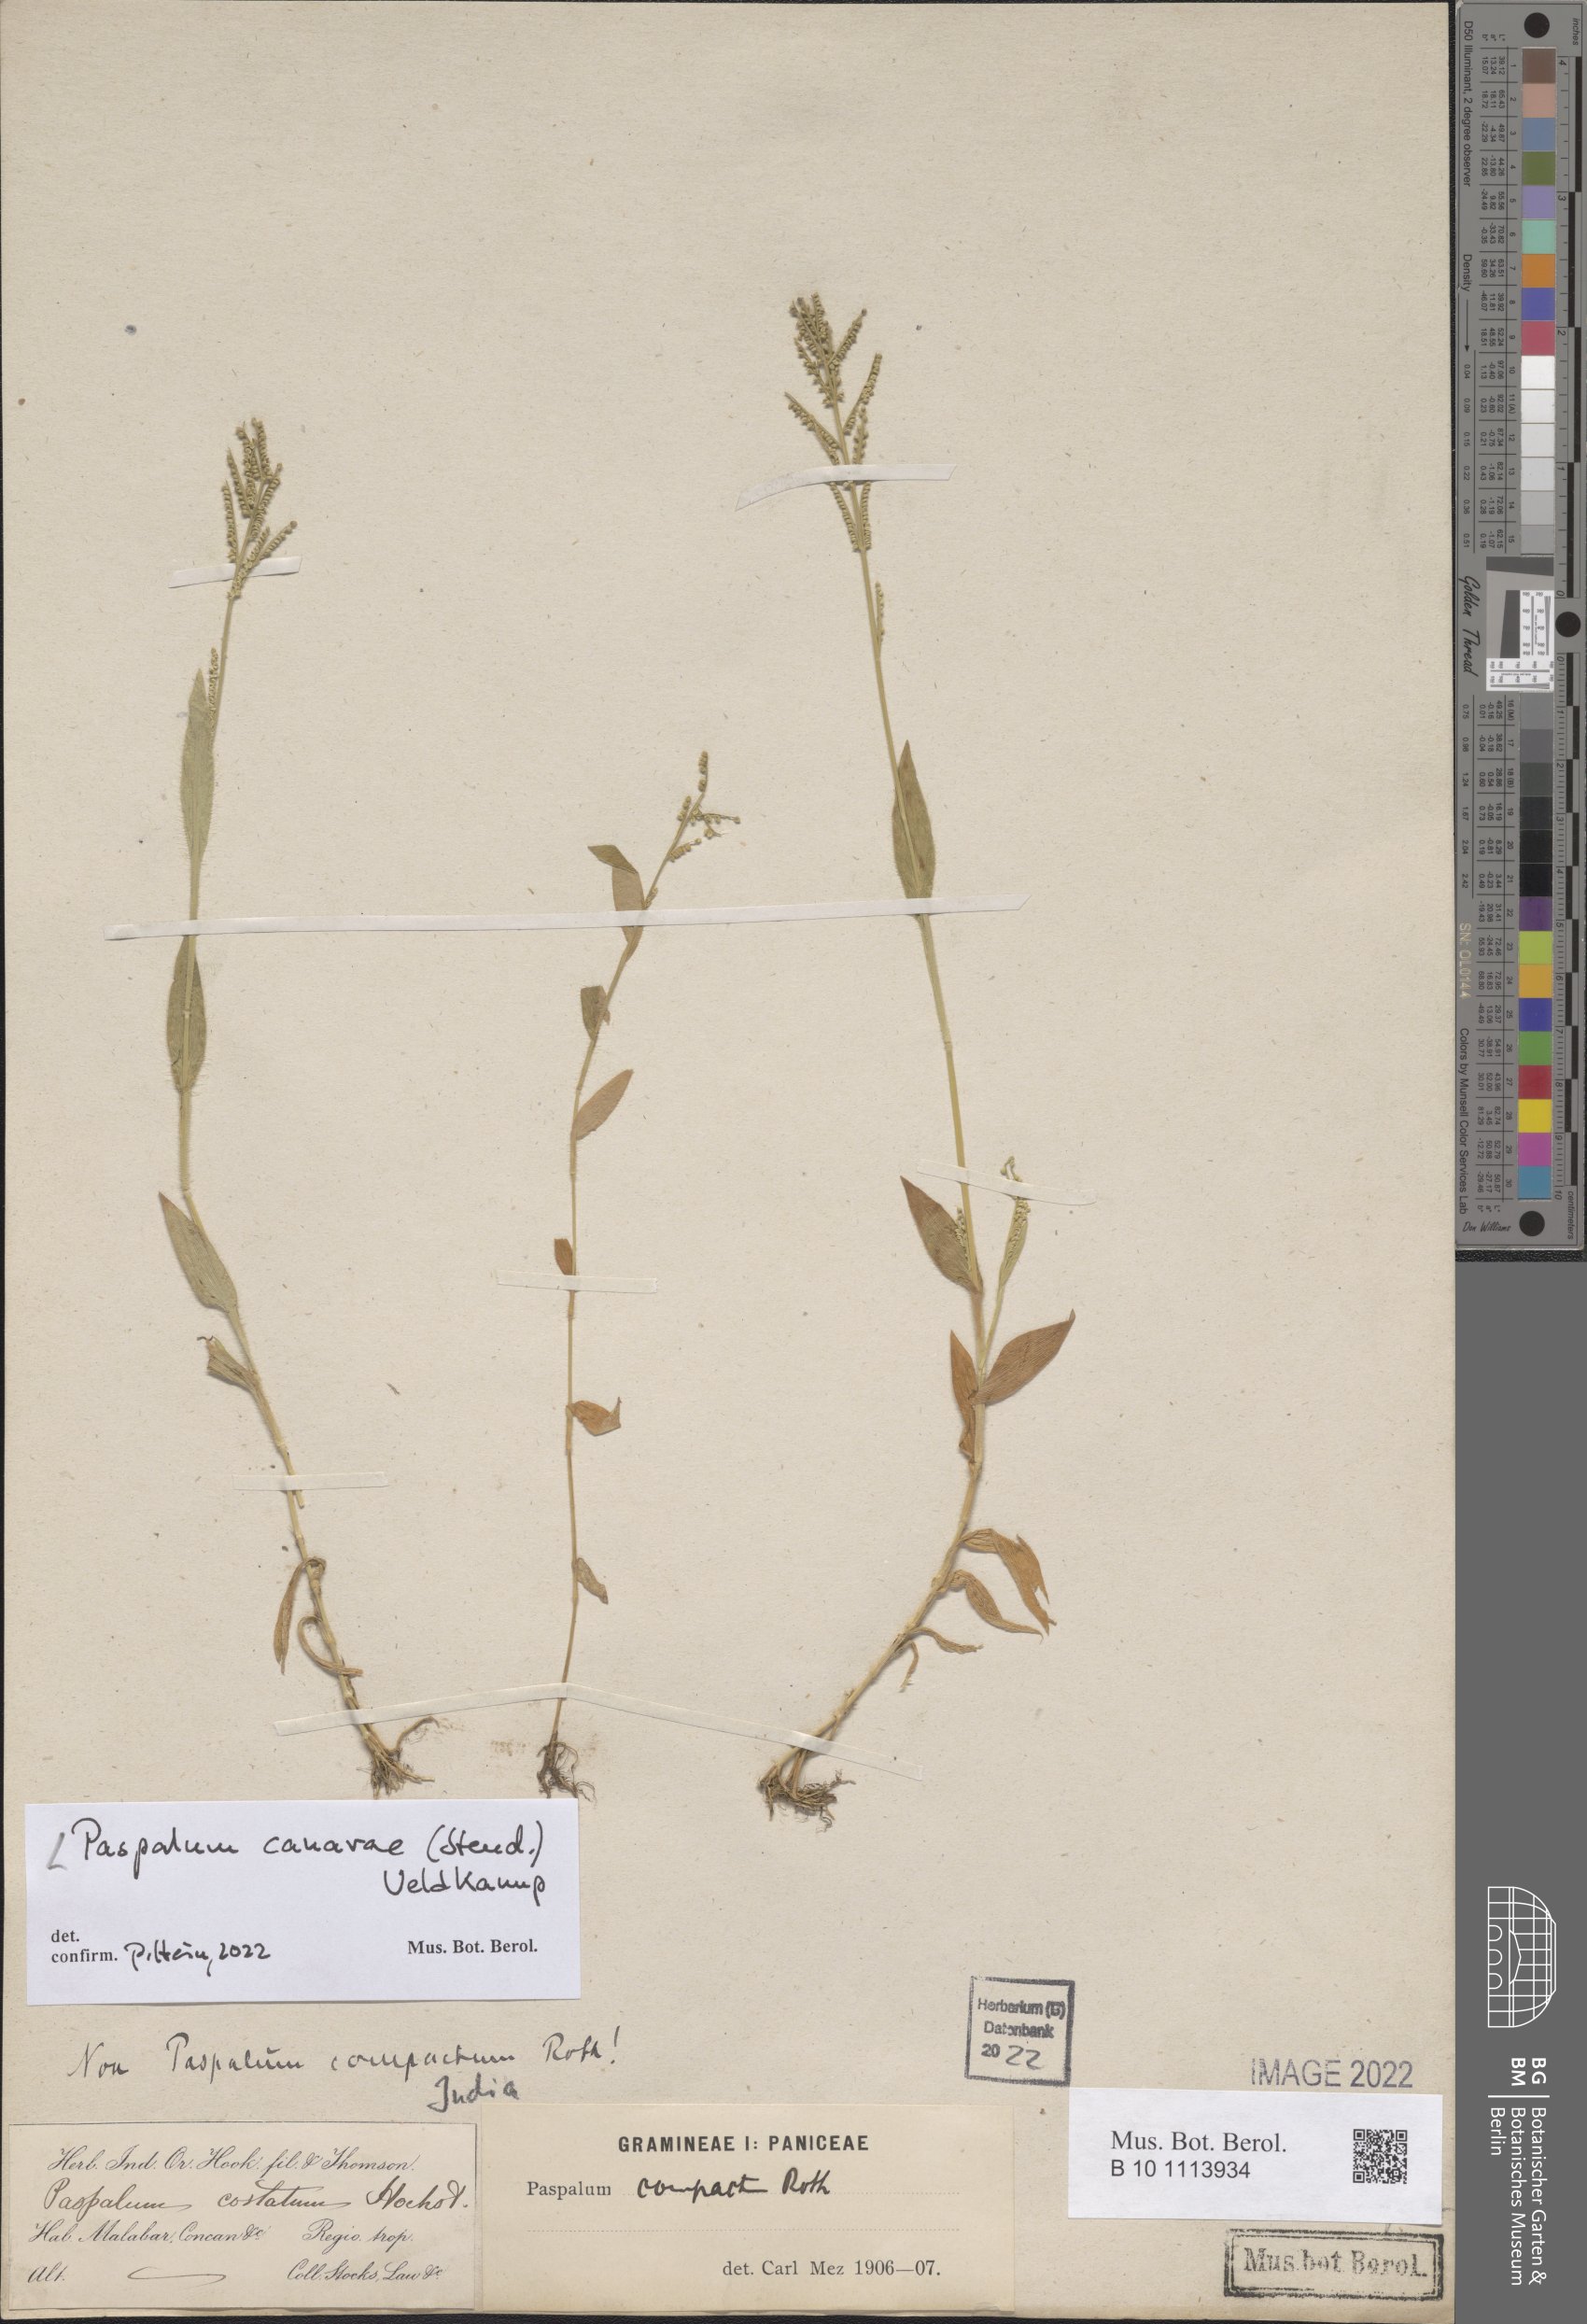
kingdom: Plantae
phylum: Tracheophyta
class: Liliopsida
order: Poales
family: Poaceae
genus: Paspalum
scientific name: Paspalum canarae
